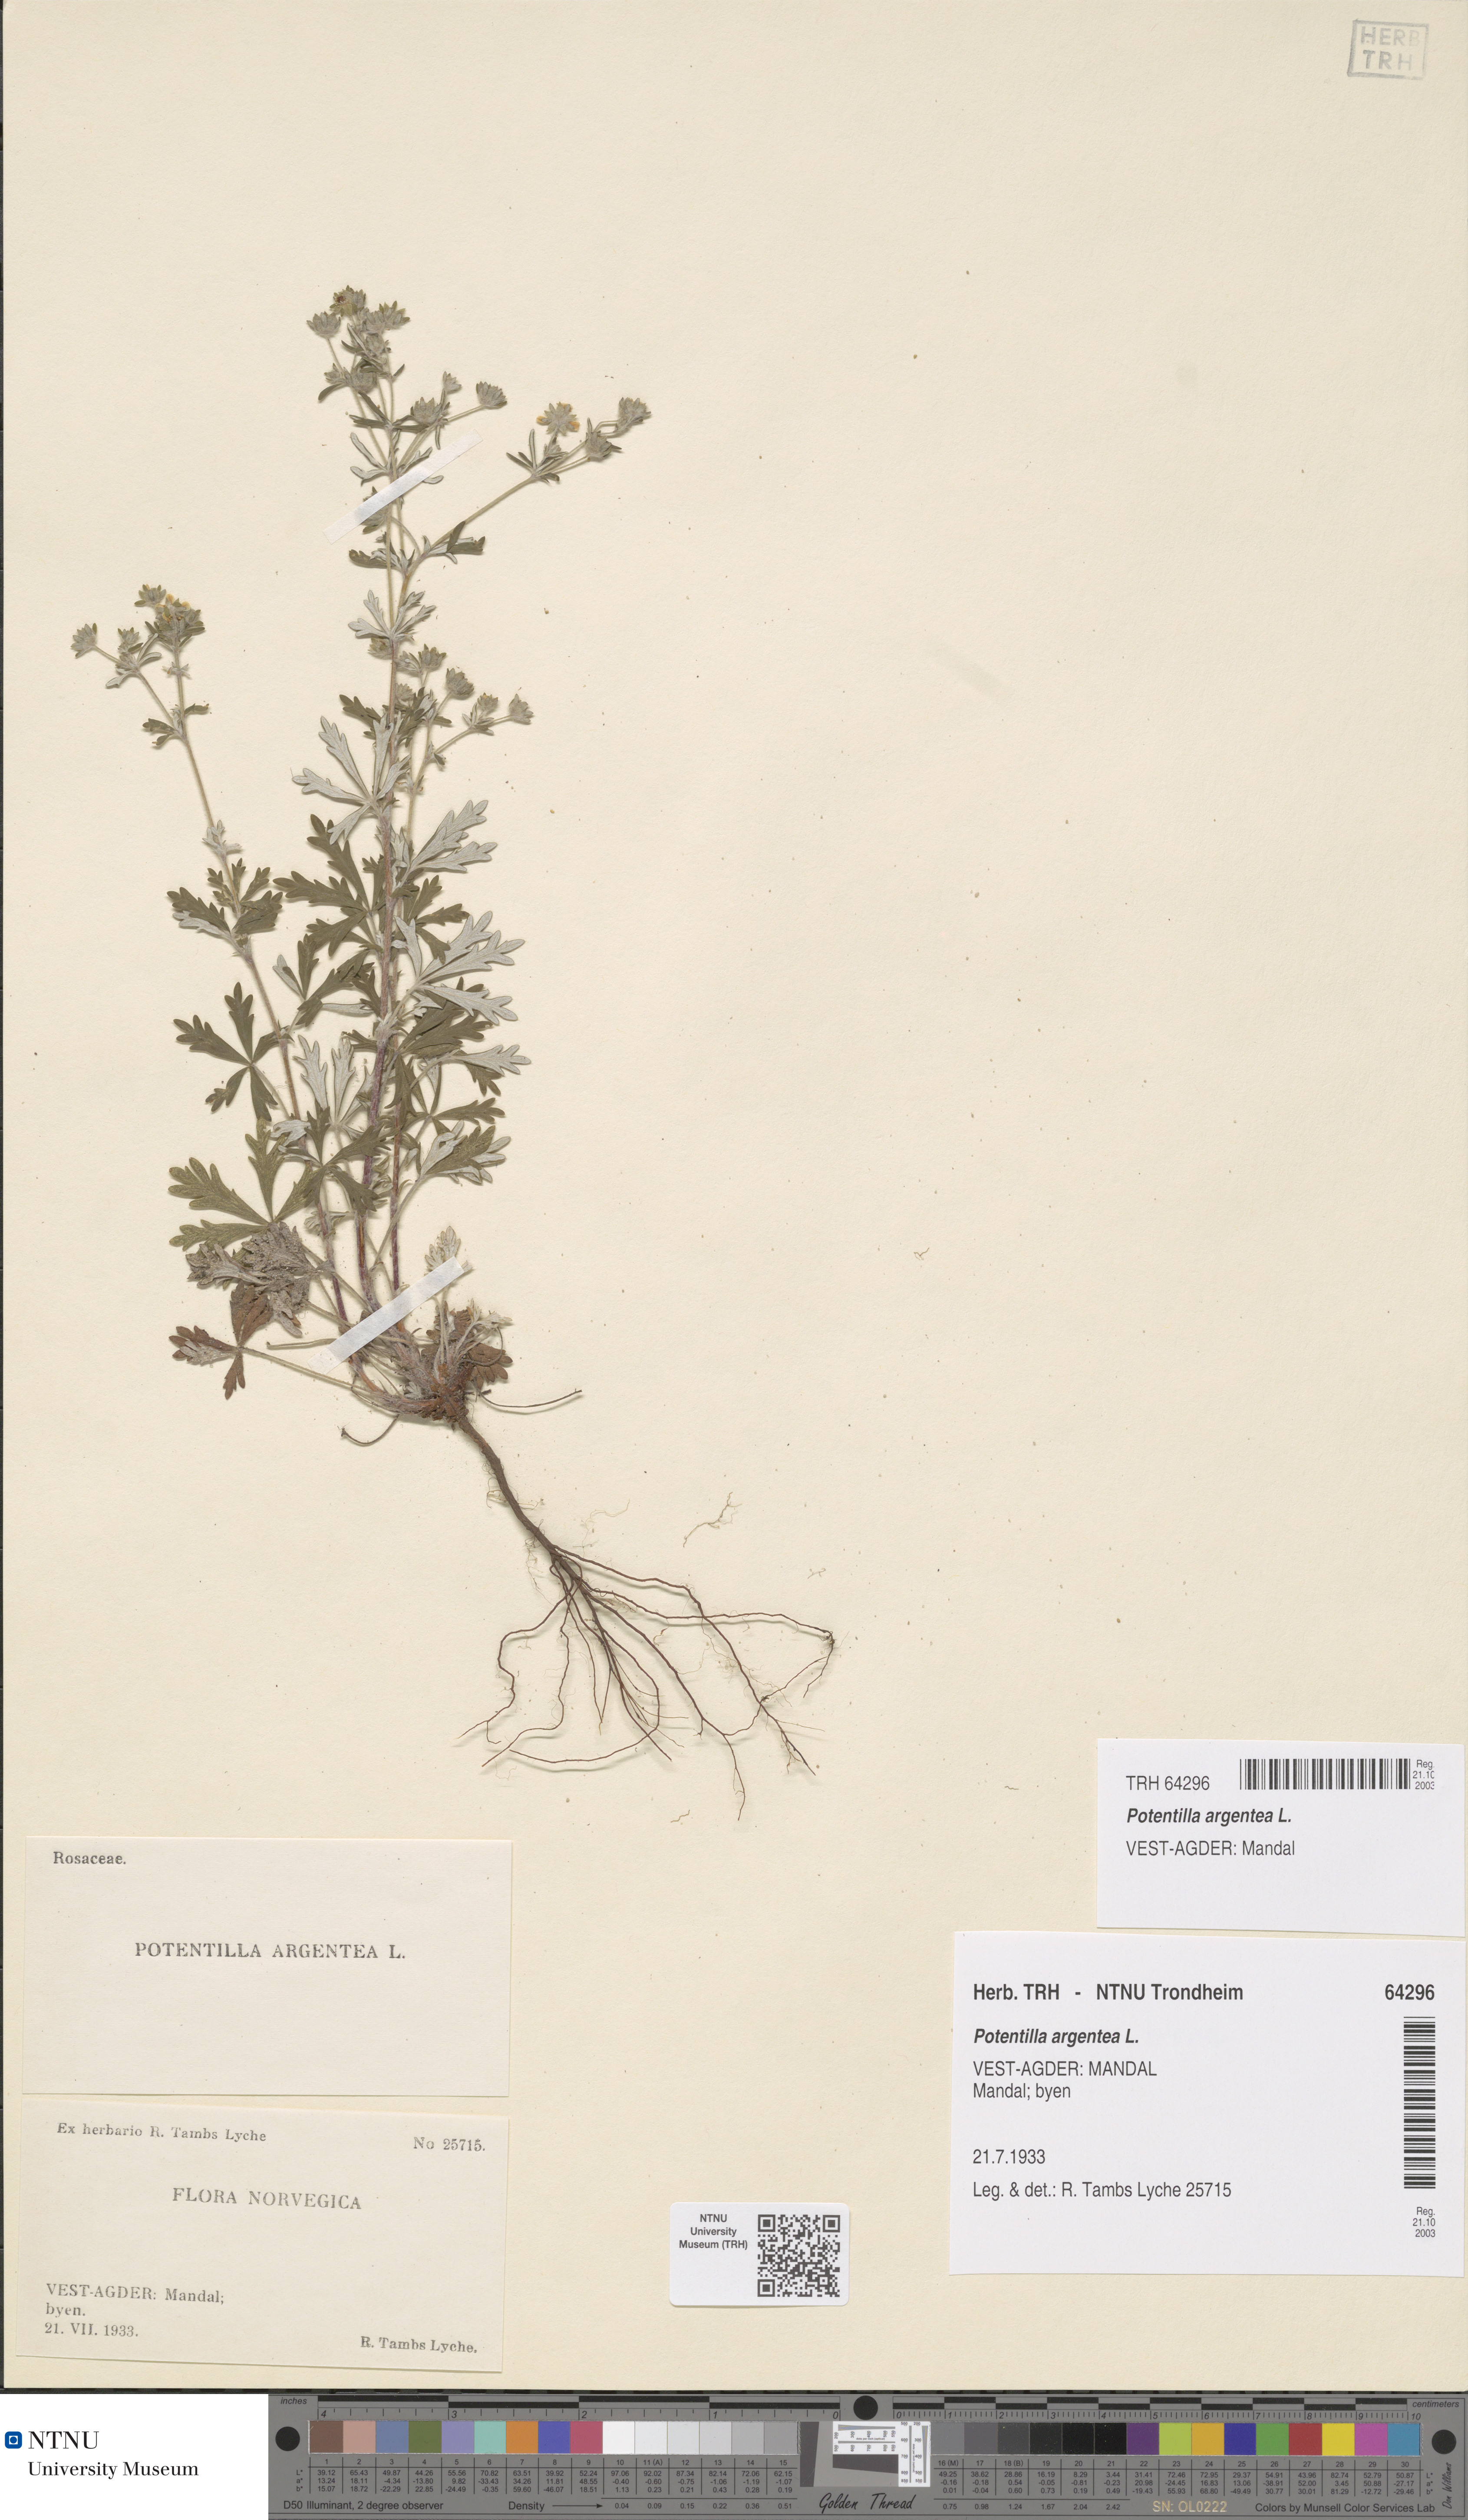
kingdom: Plantae
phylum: Tracheophyta
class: Magnoliopsida
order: Rosales
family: Rosaceae
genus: Potentilla
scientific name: Potentilla argentea
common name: Hoary cinquefoil
